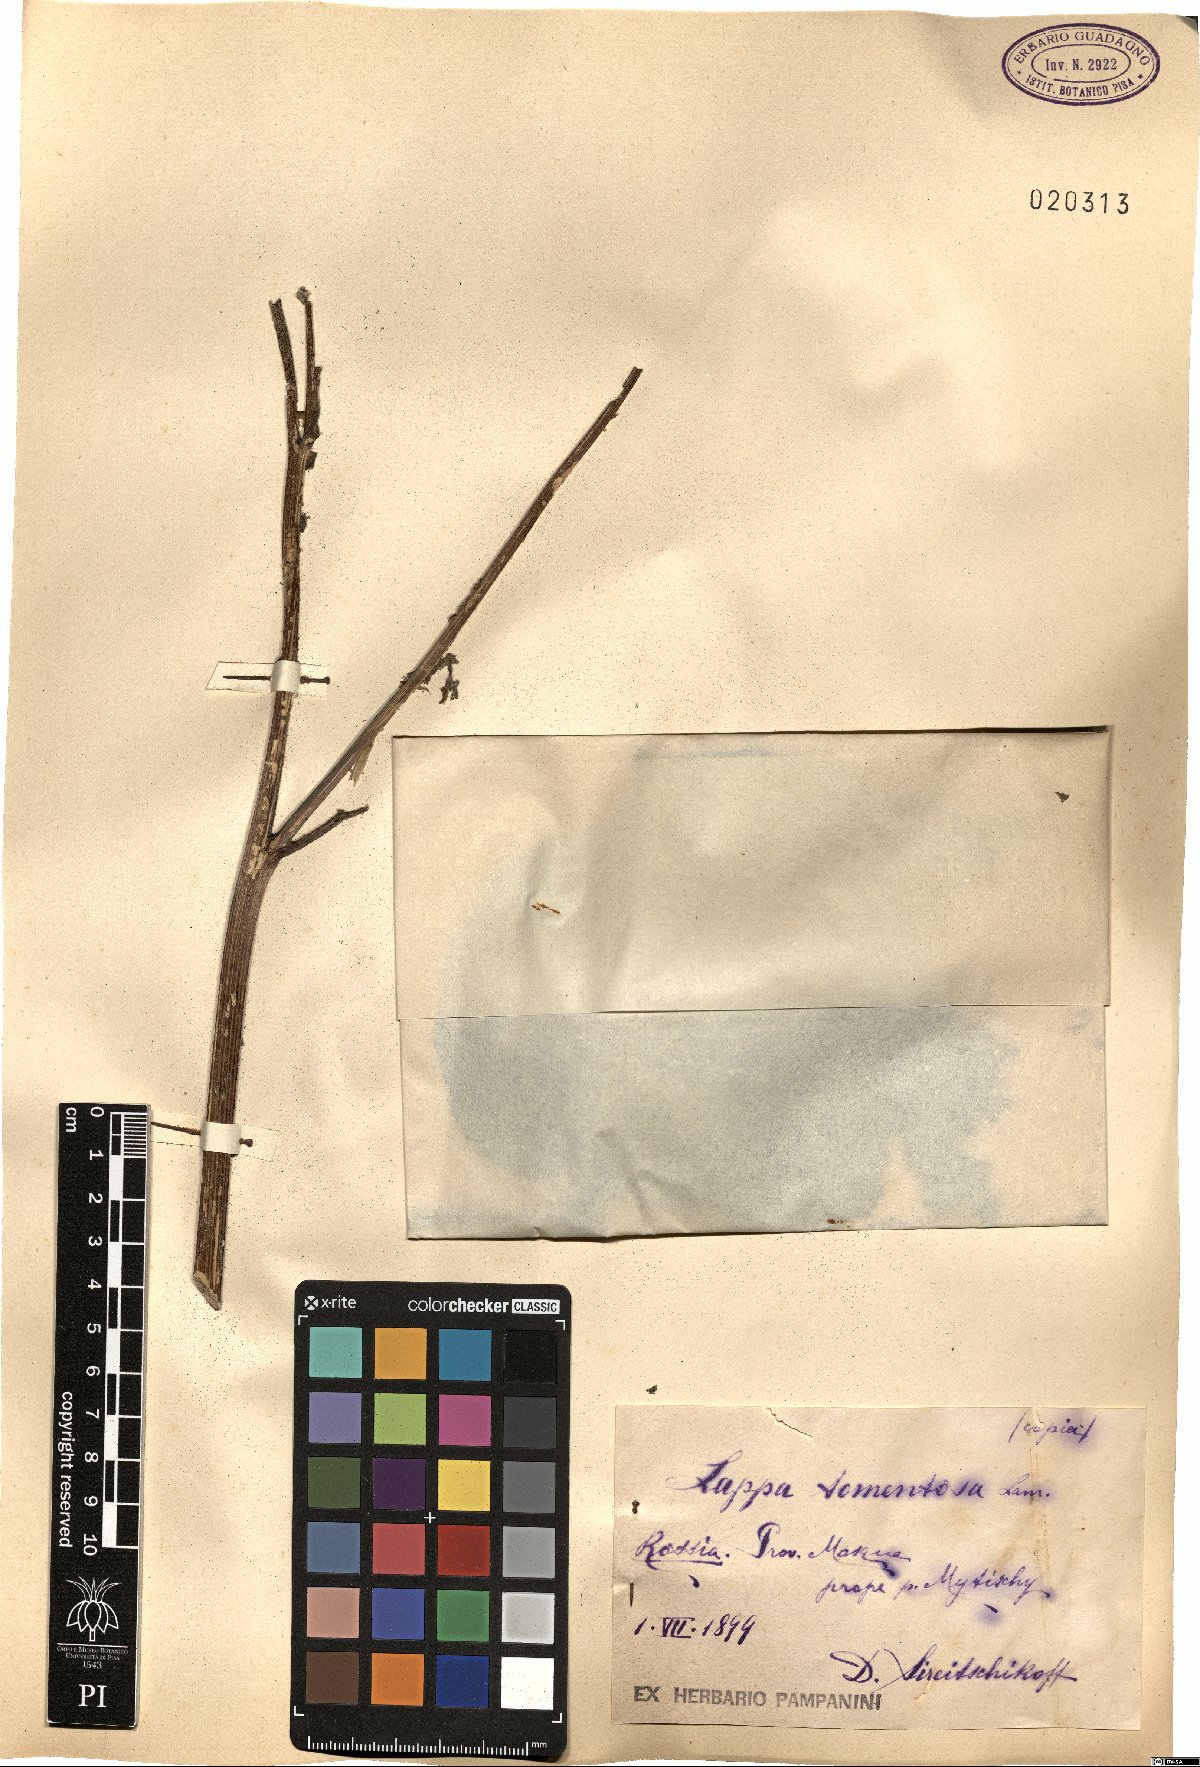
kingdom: Plantae
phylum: Tracheophyta
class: Magnoliopsida
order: Asterales
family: Asteraceae
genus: Arctium
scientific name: Arctium tomentosum
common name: Woolly burdock
